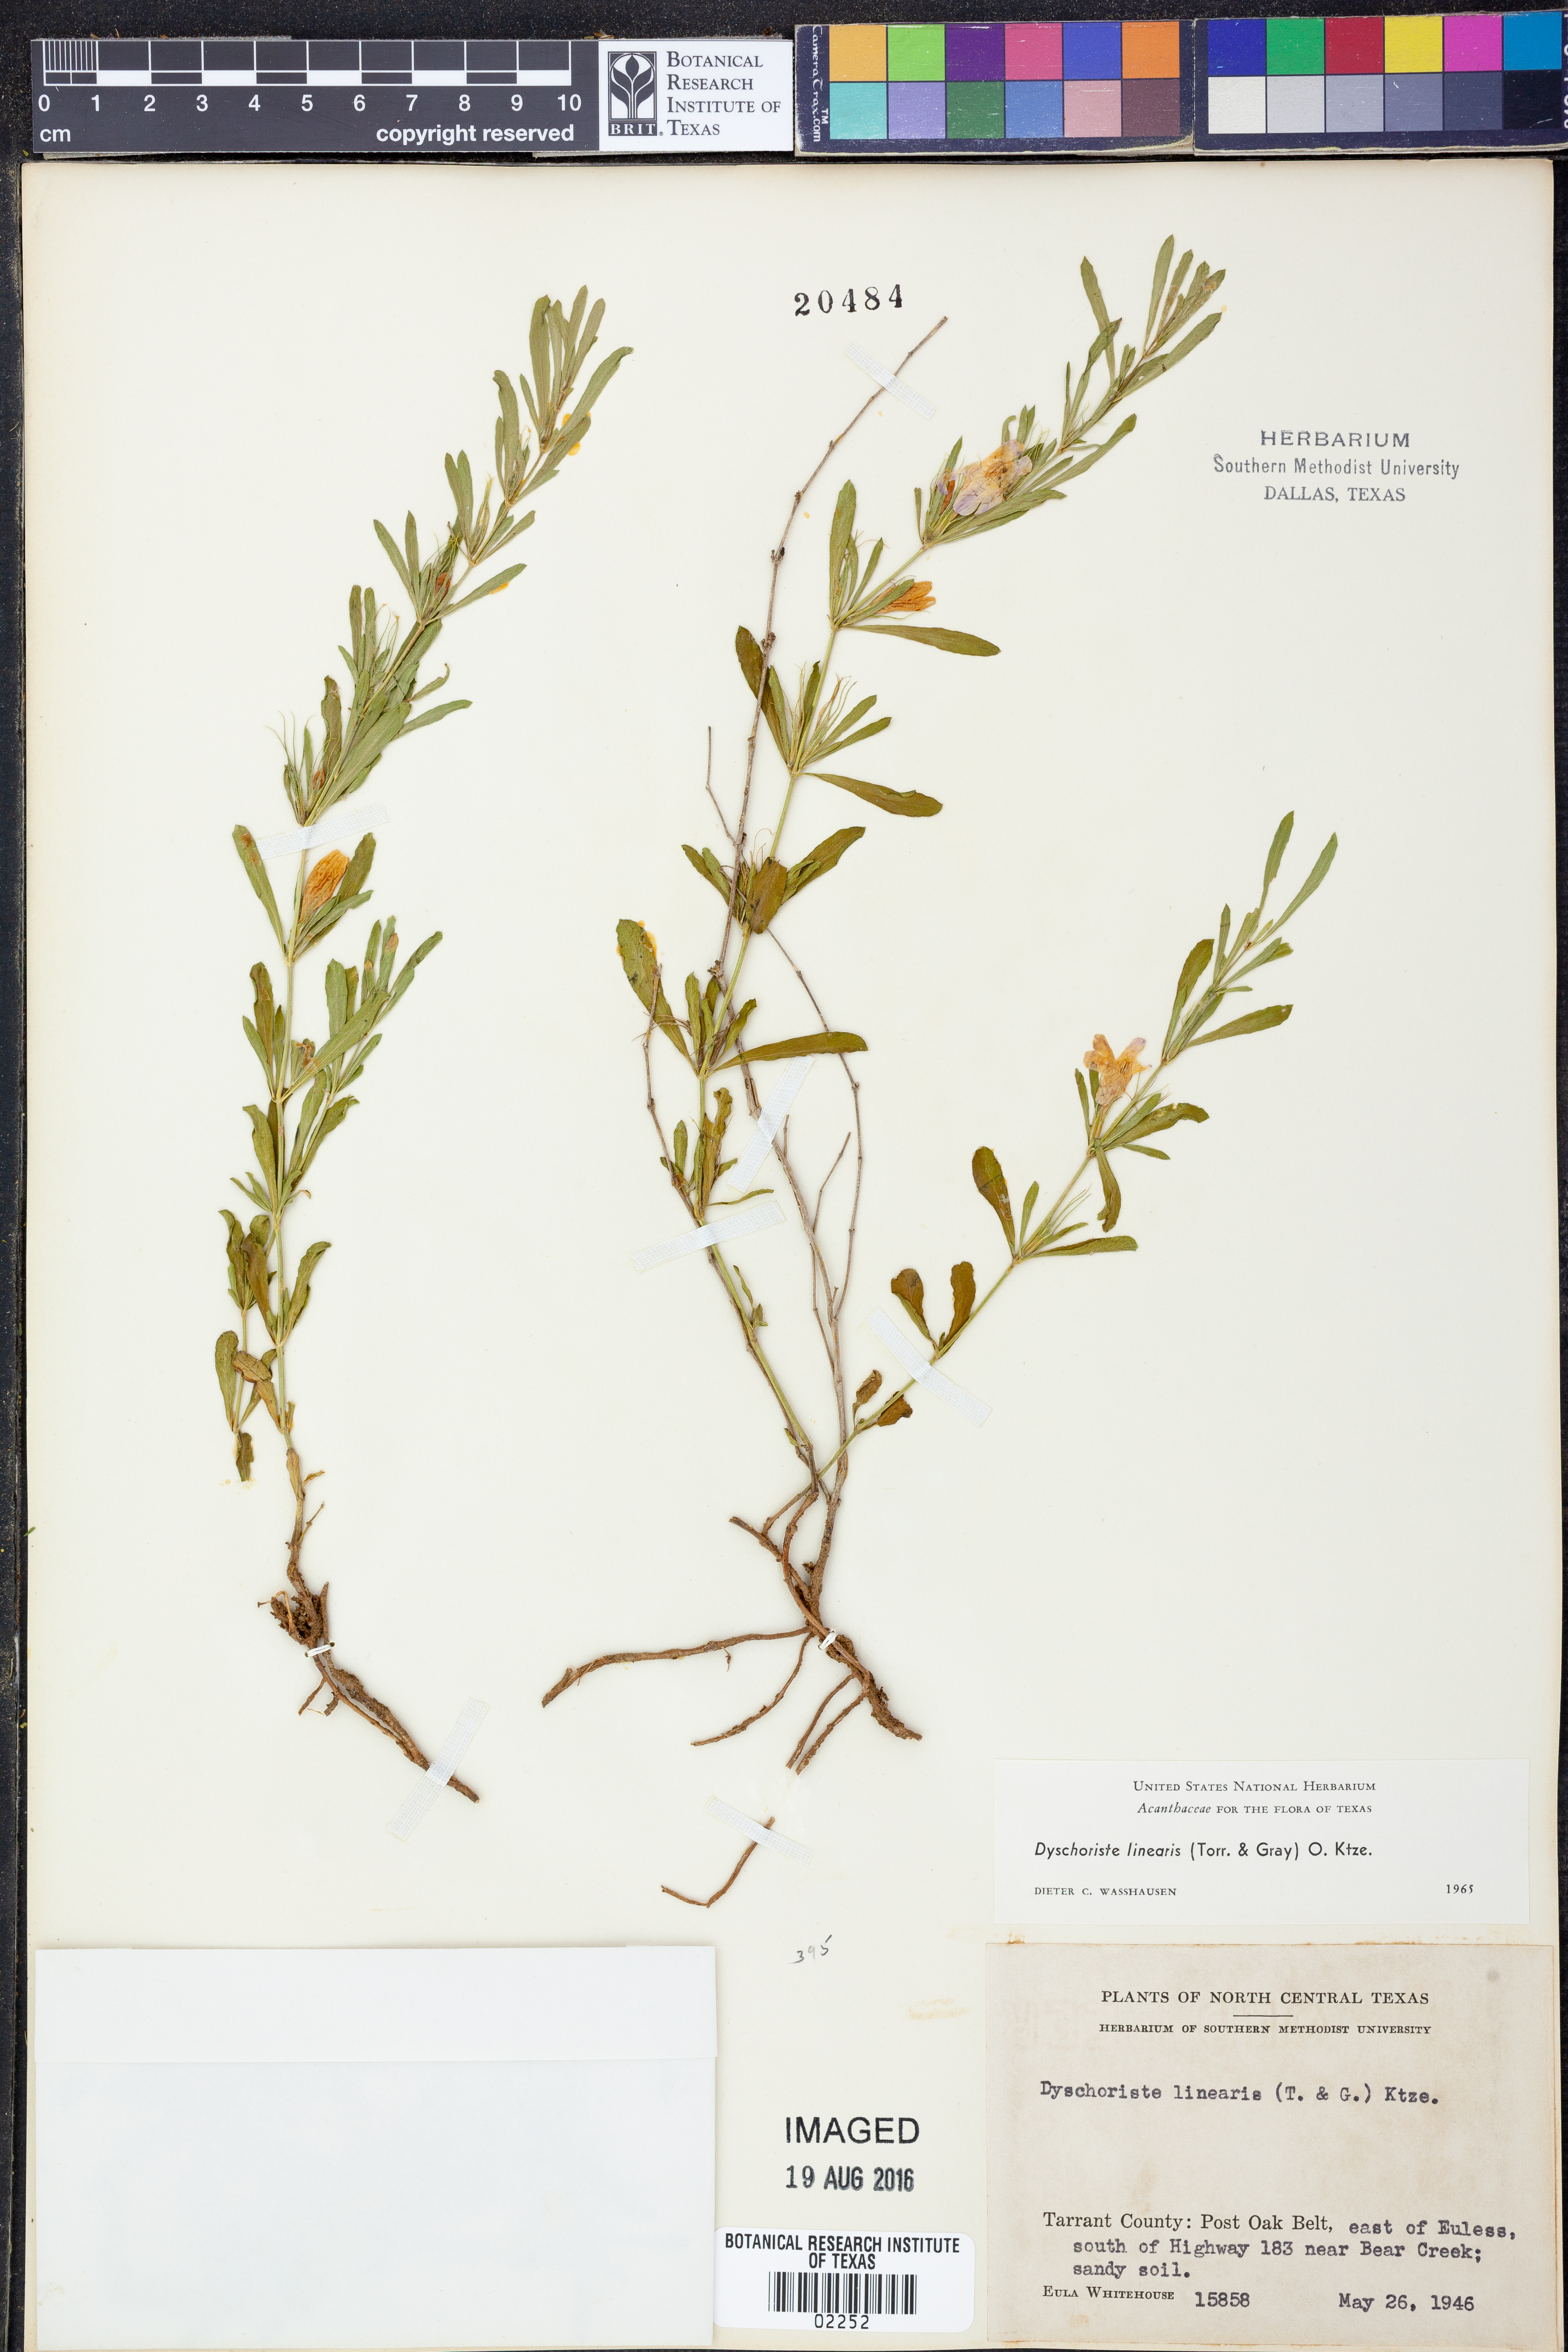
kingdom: Plantae
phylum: Tracheophyta
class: Magnoliopsida
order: Lamiales
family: Acanthaceae
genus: Dyschoriste
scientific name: Dyschoriste linearis
